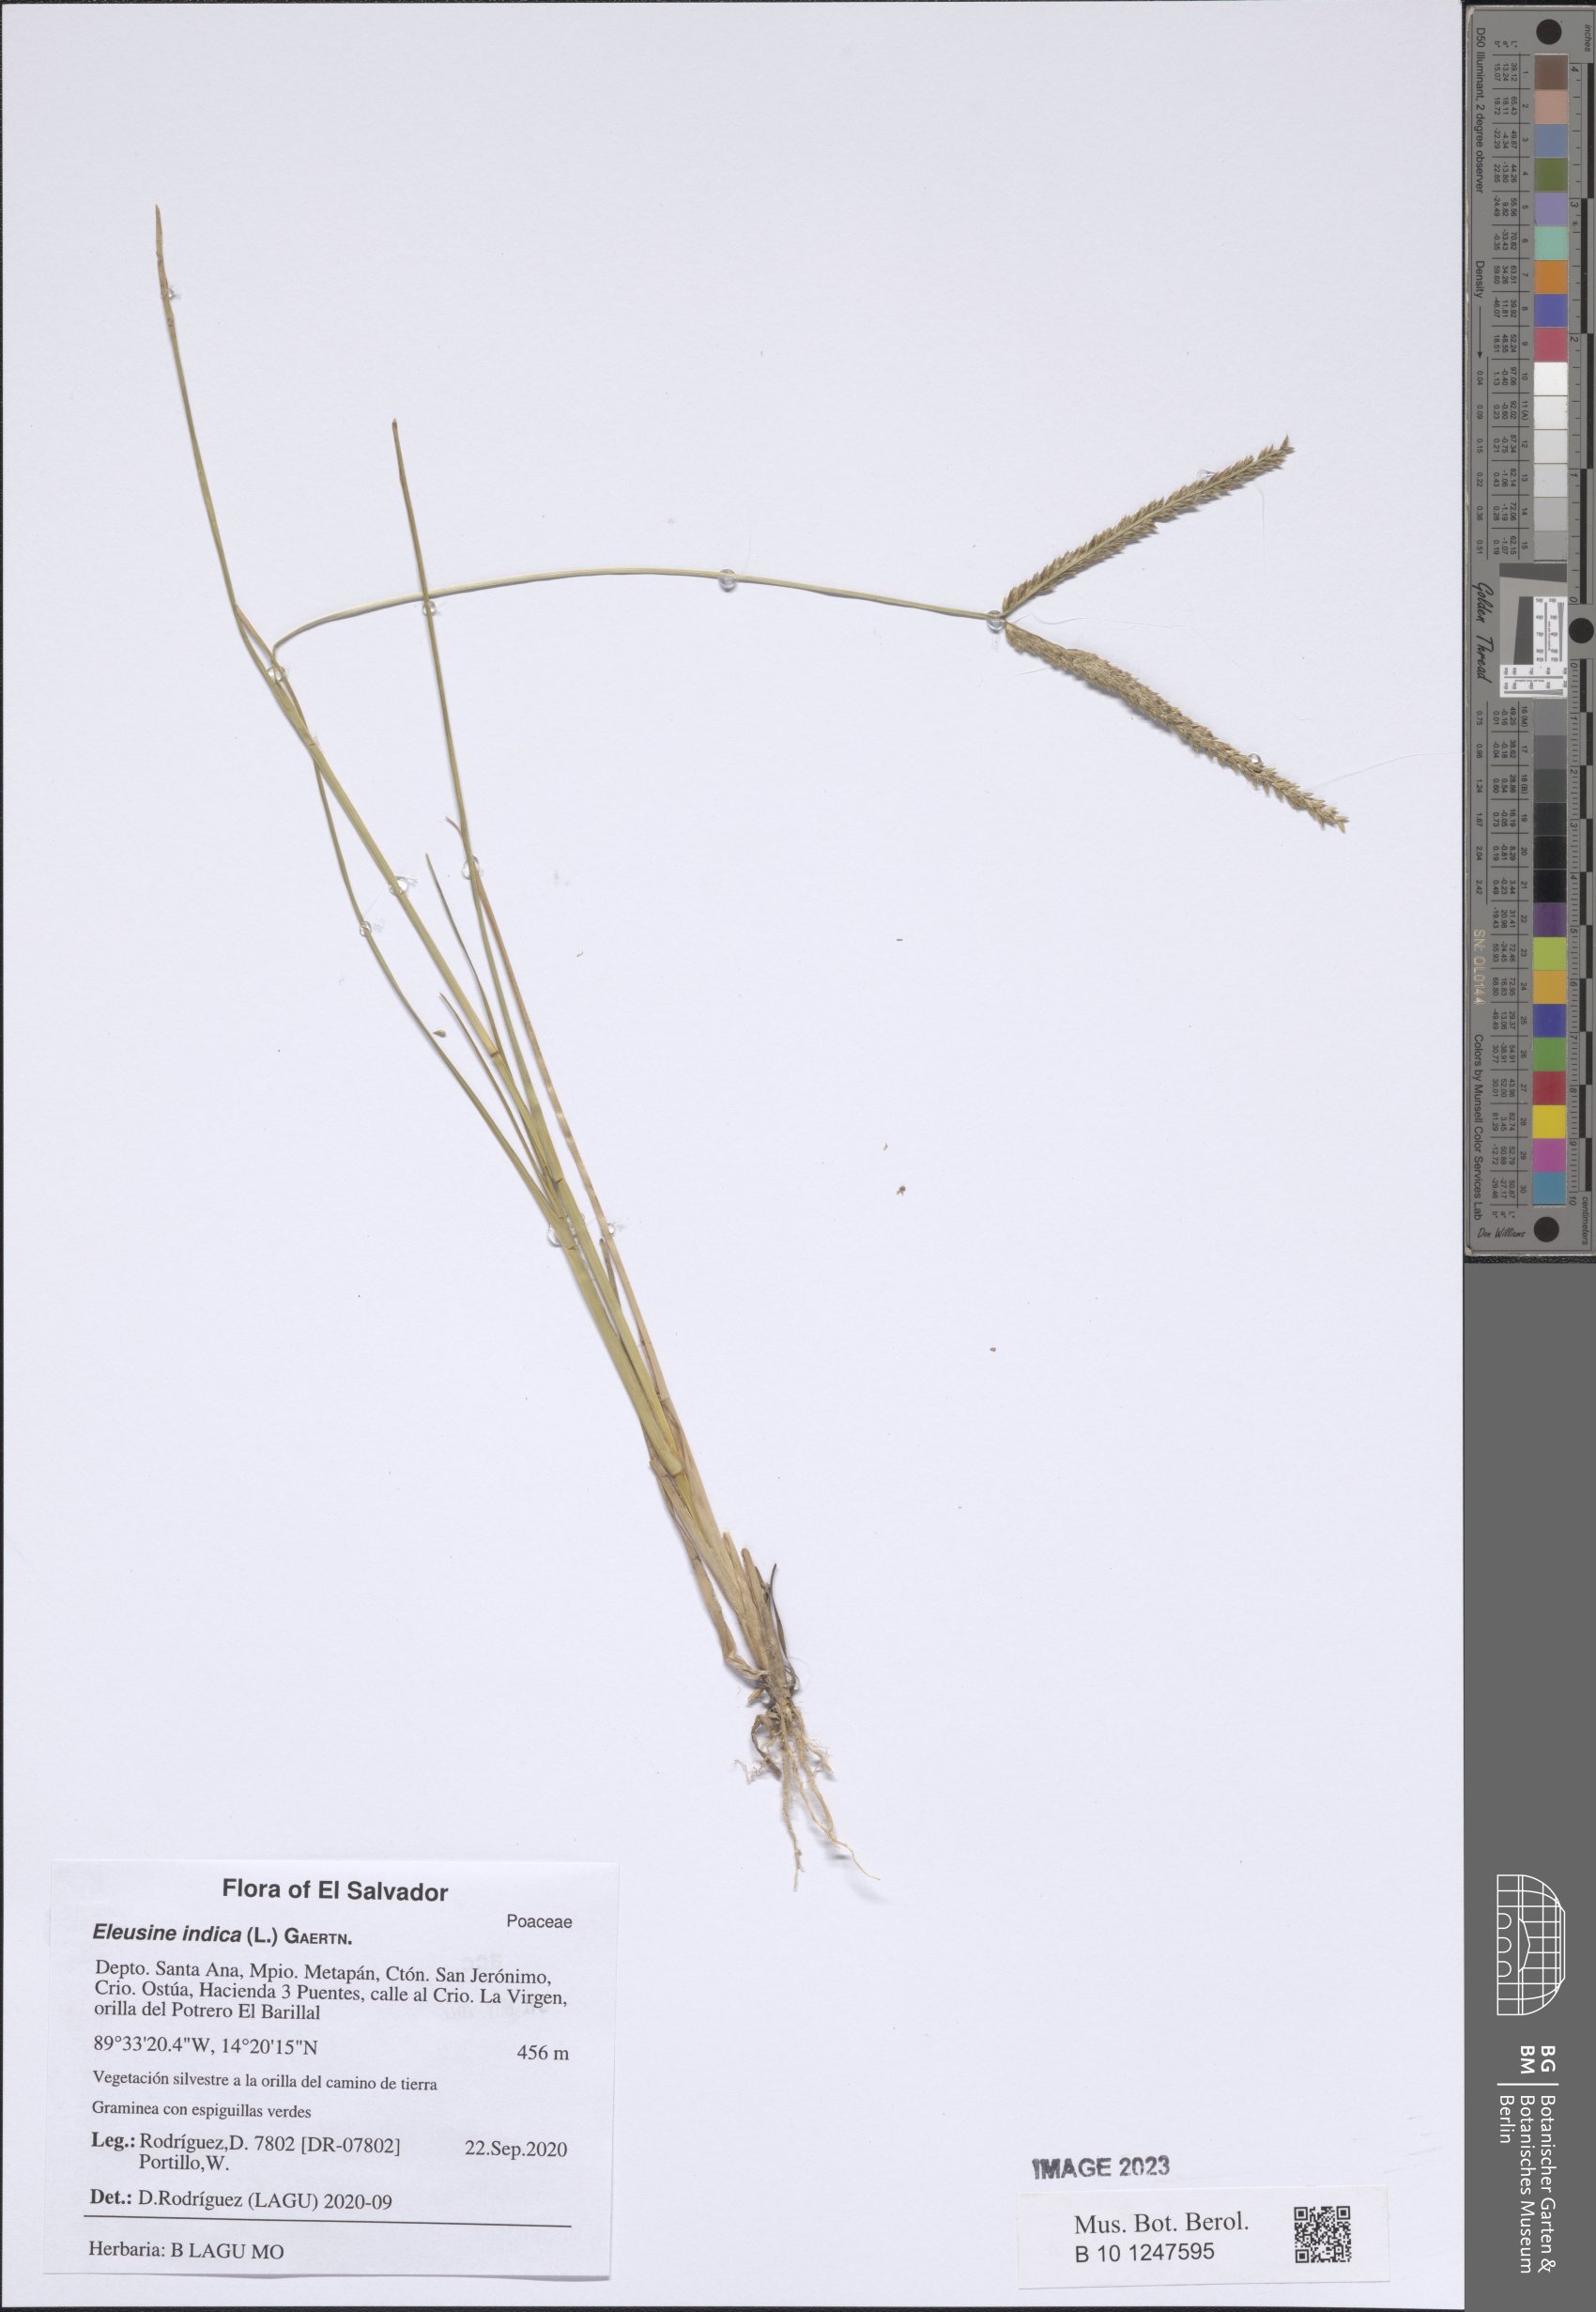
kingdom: Plantae
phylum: Tracheophyta
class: Liliopsida
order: Poales
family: Poaceae
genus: Eleusine
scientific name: Eleusine indica
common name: Yard-grass
